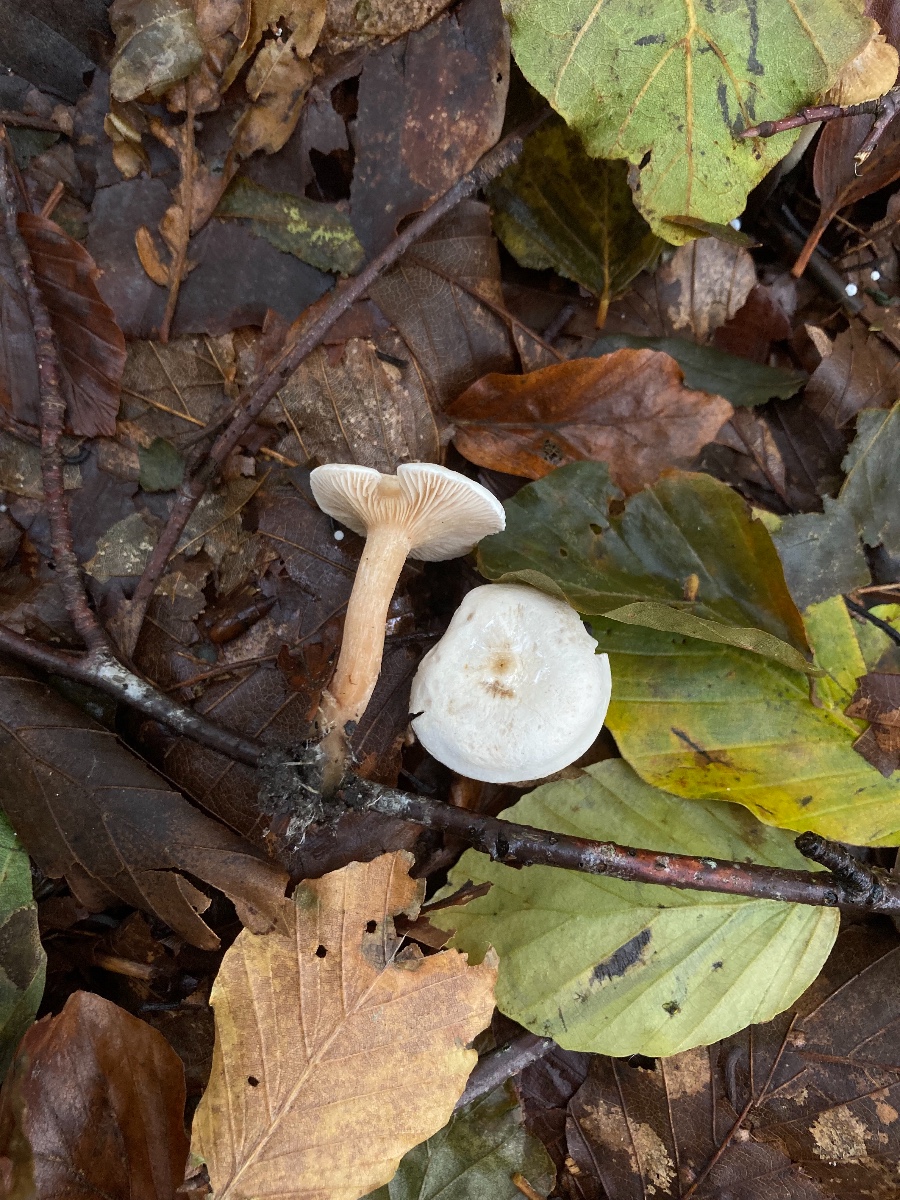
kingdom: Fungi
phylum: Basidiomycota
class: Agaricomycetes
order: Agaricales
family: Tricholomataceae
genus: Ripartites
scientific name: Ripartites tricholoma
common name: almindelig skæghat
